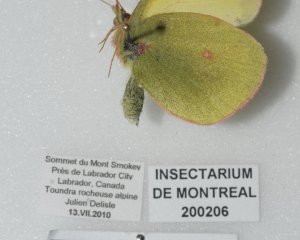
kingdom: Animalia
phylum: Arthropoda
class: Insecta
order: Lepidoptera
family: Pieridae
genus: Colias
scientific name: Colias pelidne
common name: Pelidne Sulphur
